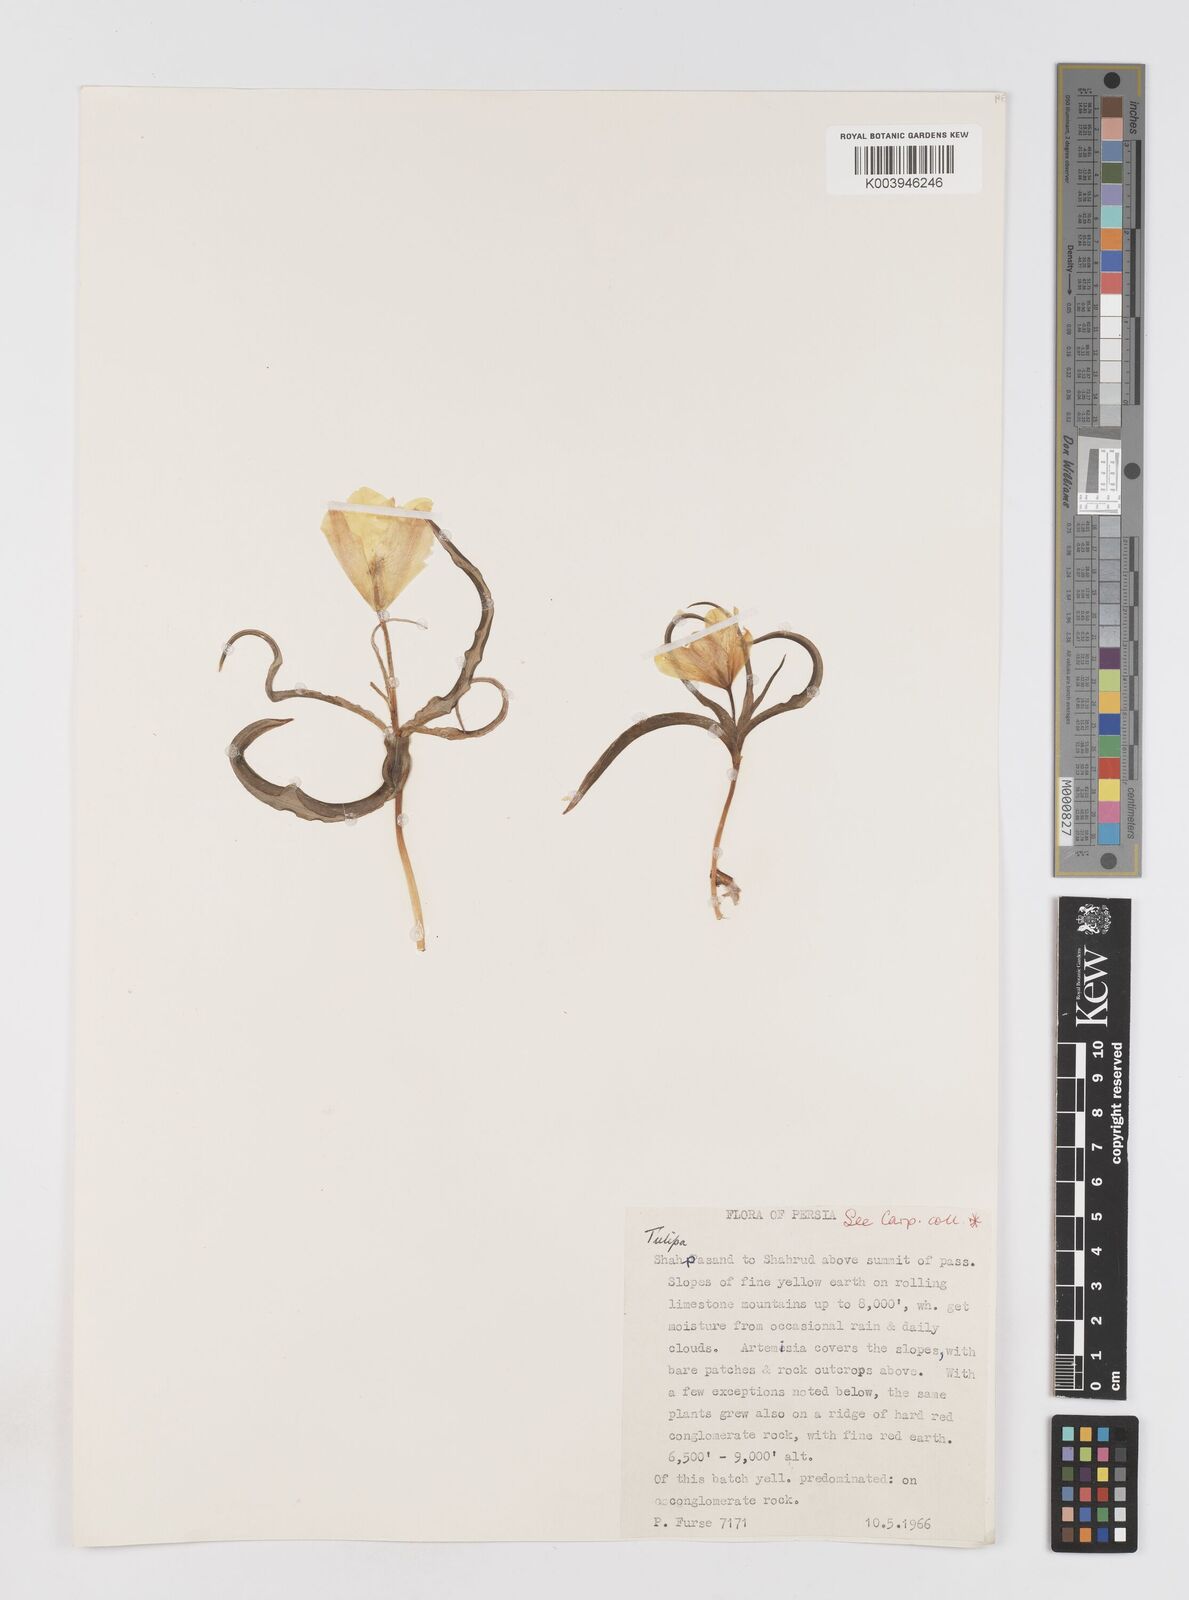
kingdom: Plantae
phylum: Tracheophyta
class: Liliopsida
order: Liliales
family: Liliaceae
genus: Tulipa
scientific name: Tulipa montana
